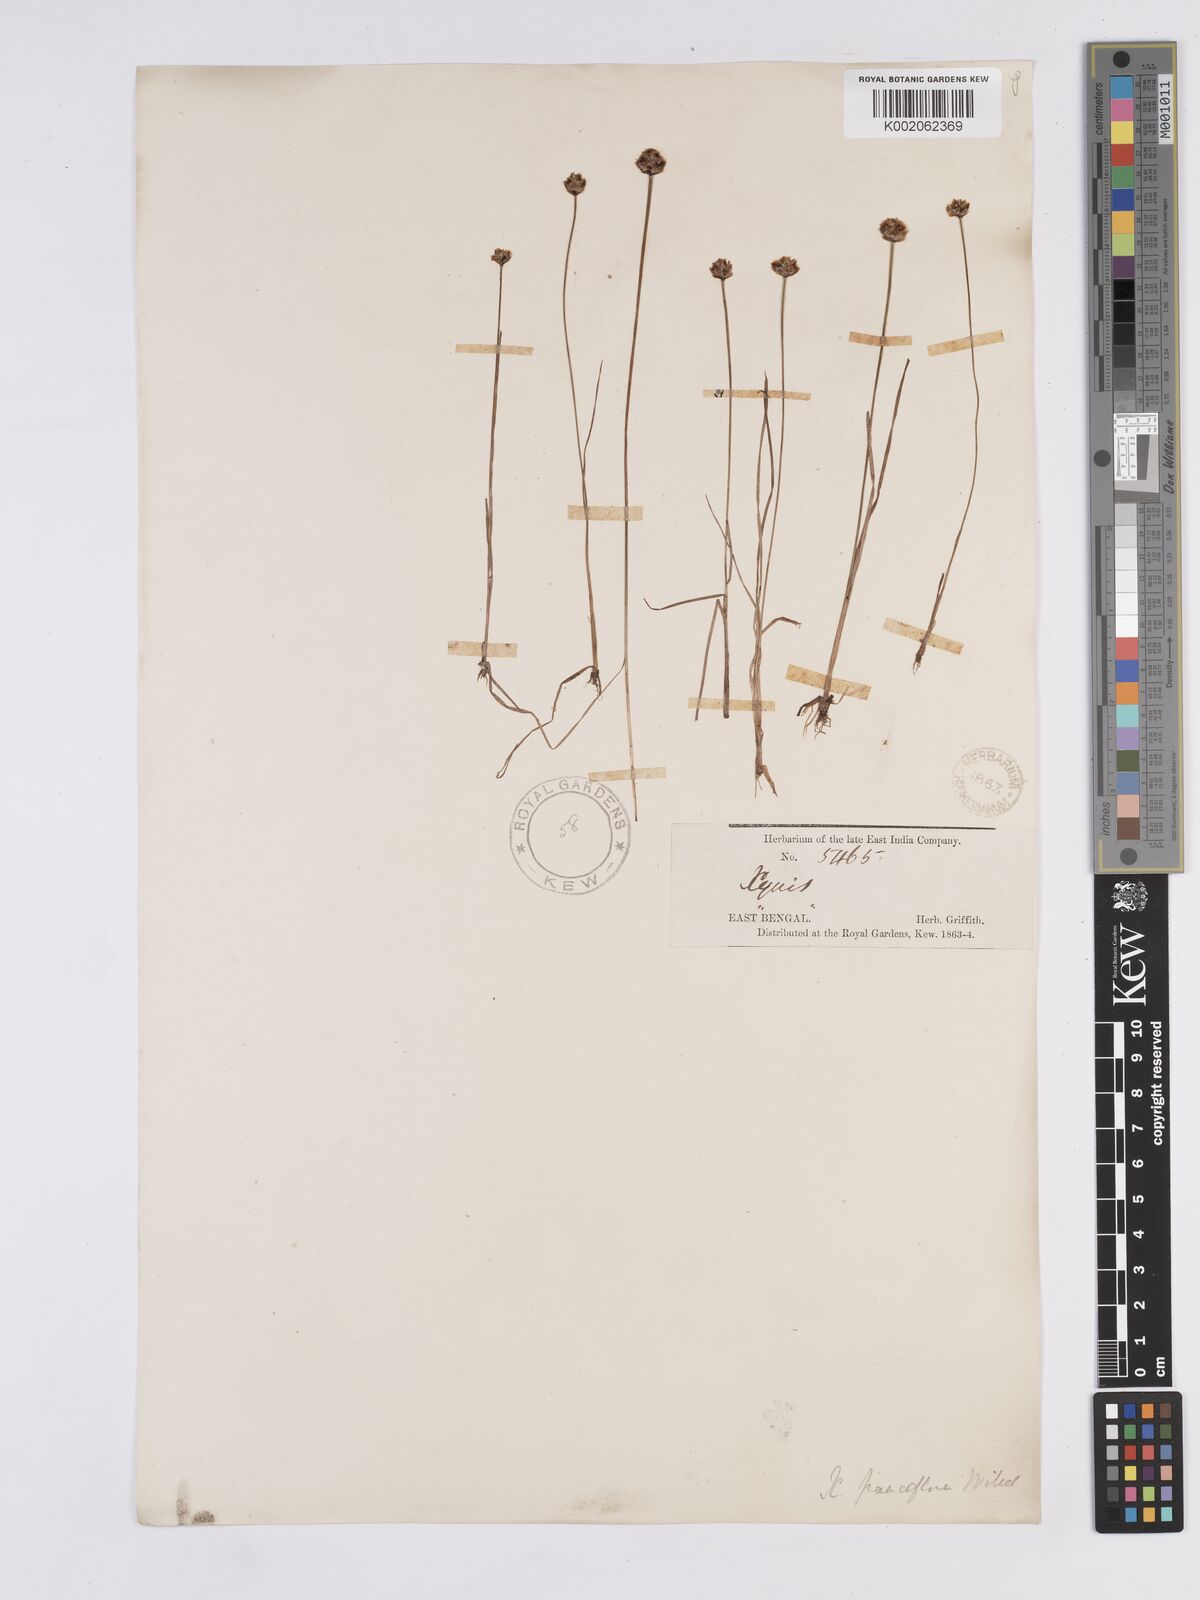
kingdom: Plantae
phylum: Tracheophyta
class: Liliopsida
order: Poales
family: Xyridaceae
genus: Xyris
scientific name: Xyris pauciflora
